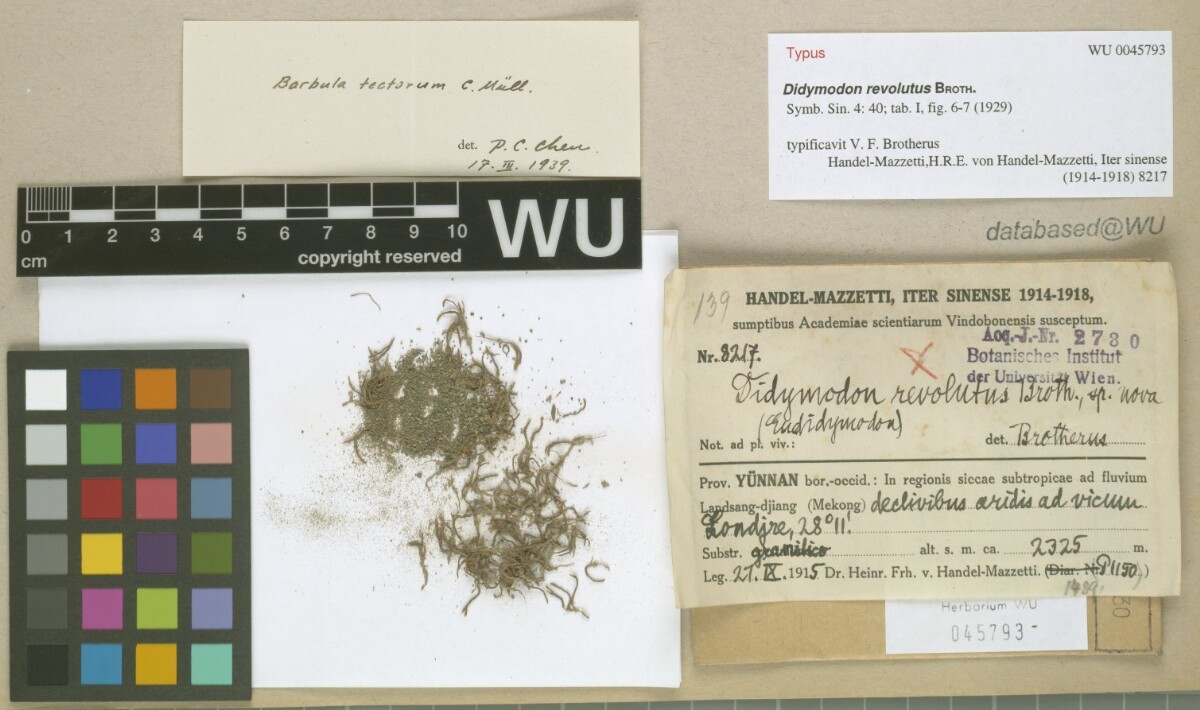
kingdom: Plantae
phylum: Bryophyta
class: Bryopsida
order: Pottiales
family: Pottiaceae
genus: Didymodon
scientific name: Didymodon tectorum
